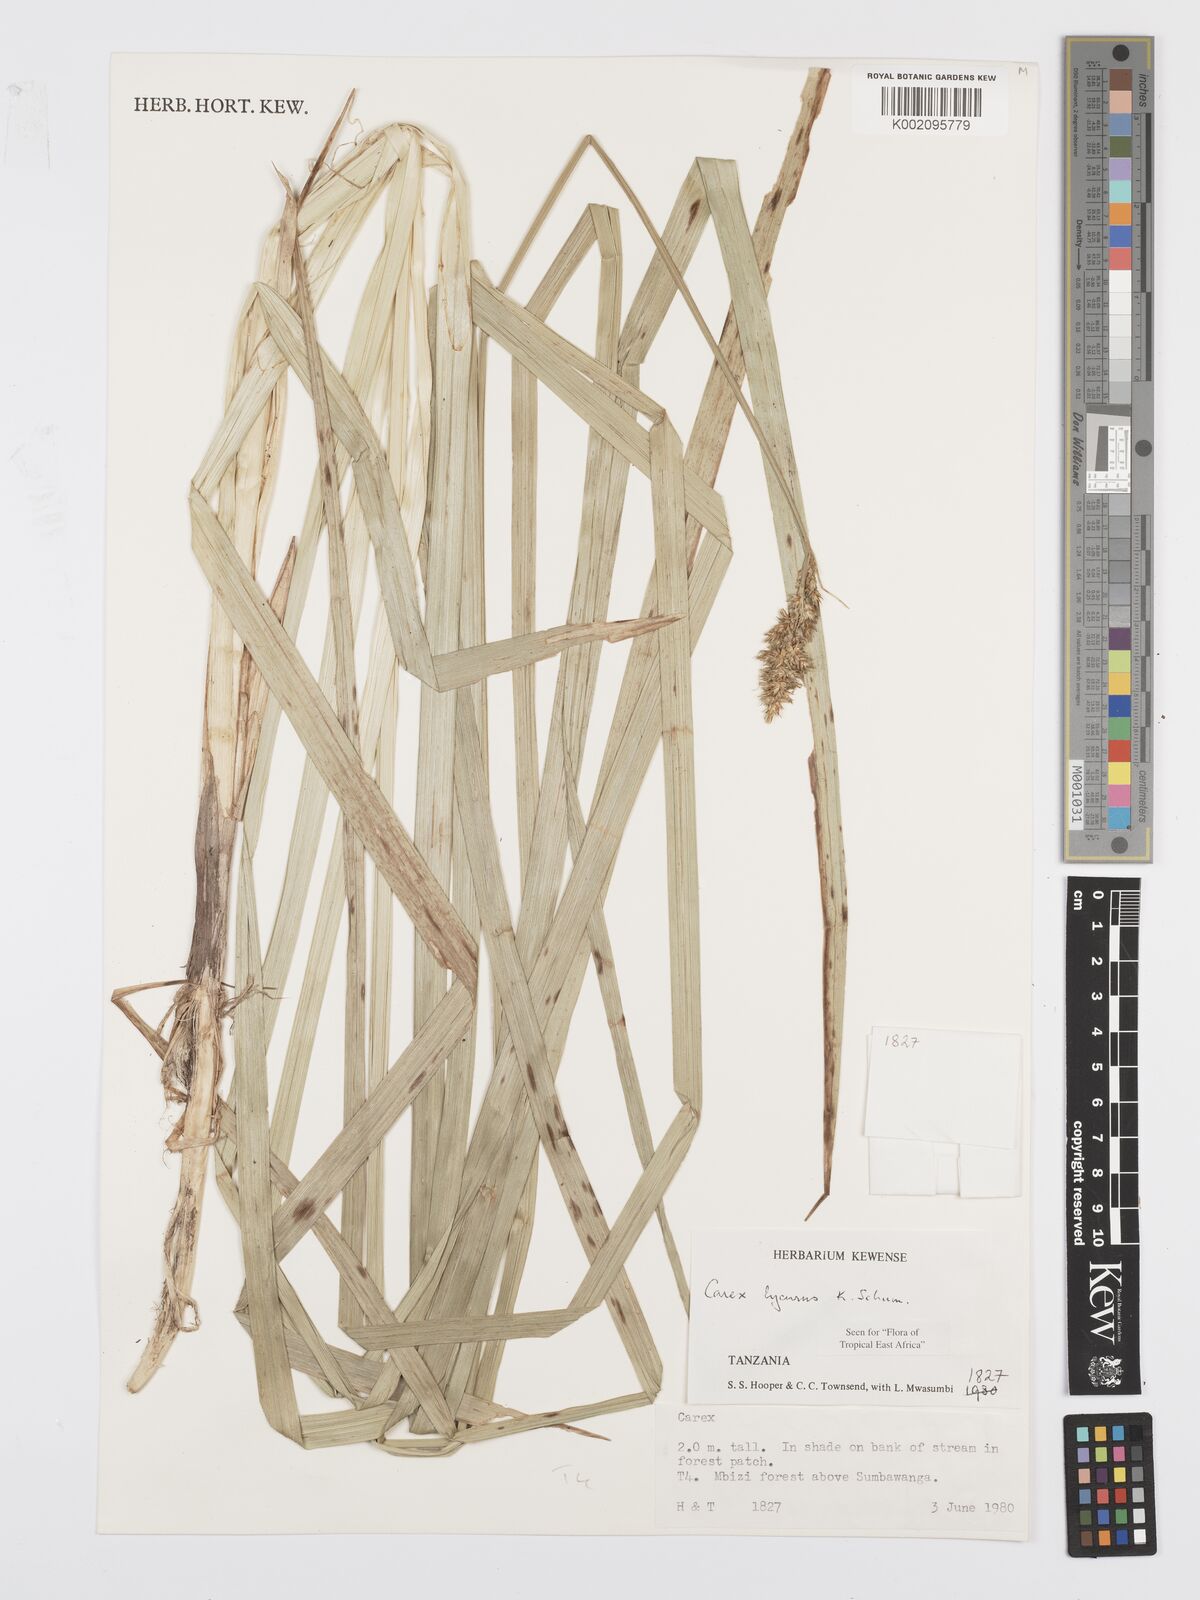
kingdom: Plantae
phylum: Tracheophyta
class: Liliopsida
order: Poales
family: Cyperaceae
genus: Carex
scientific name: Carex lycurus
